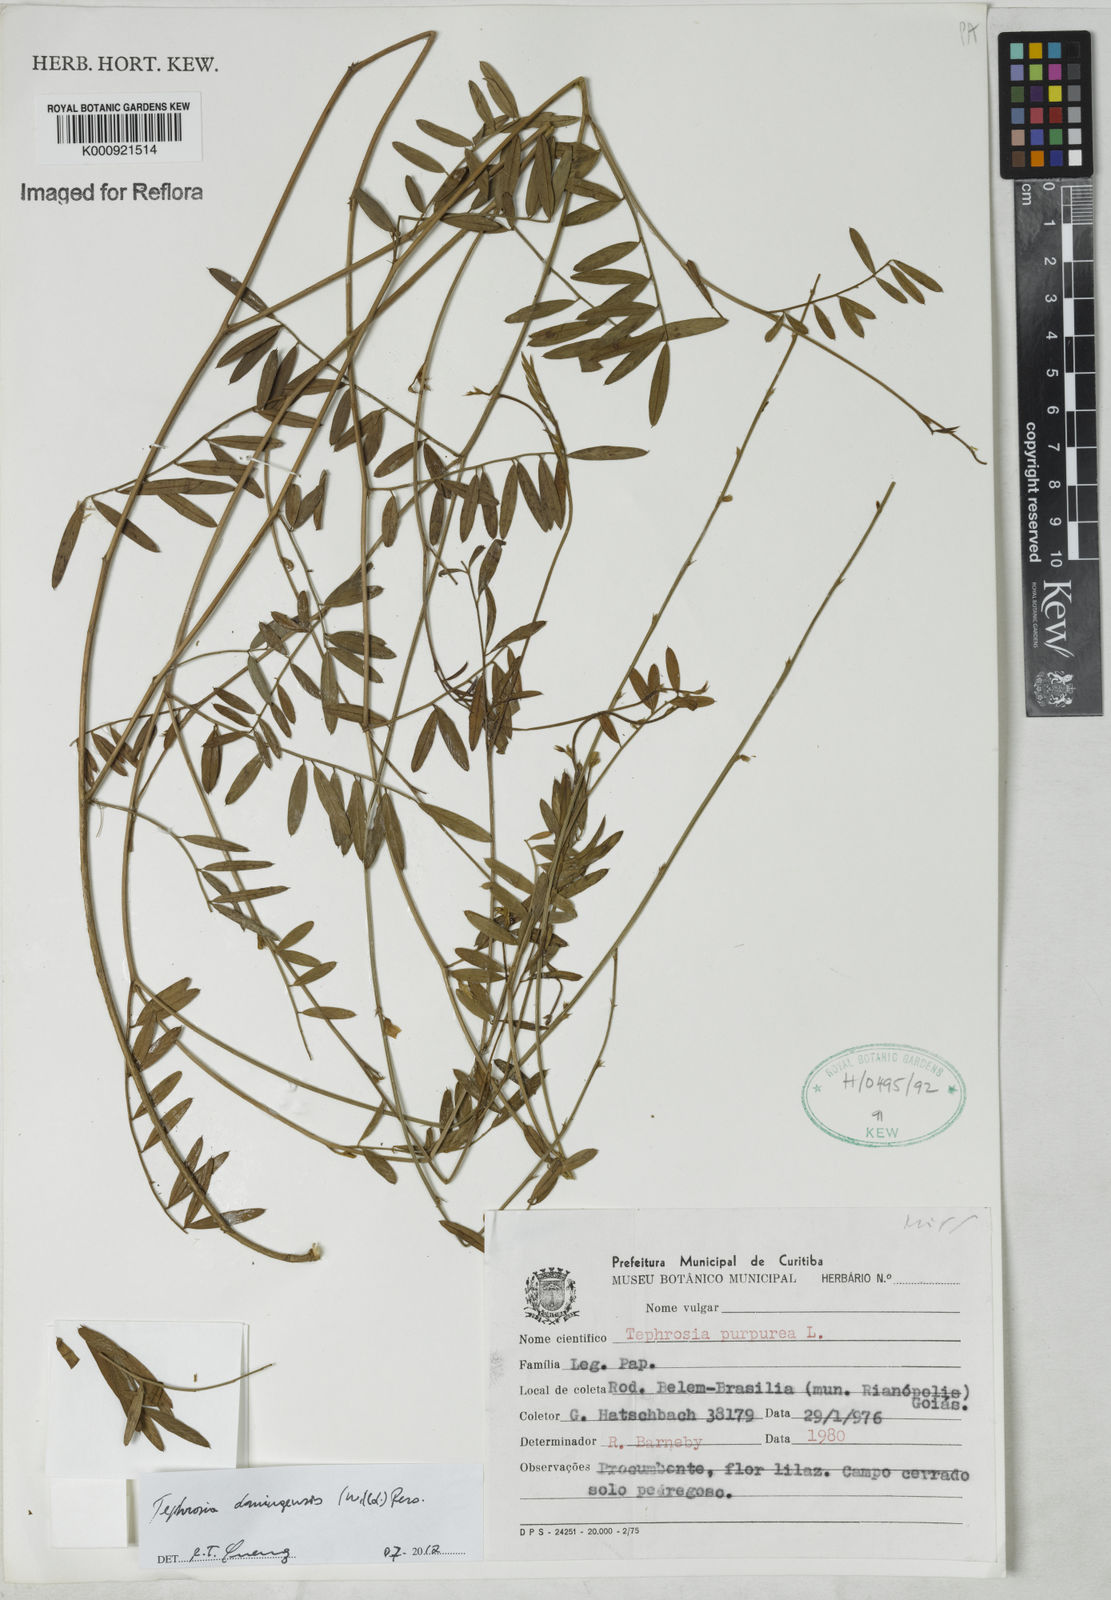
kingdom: Plantae
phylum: Tracheophyta
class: Magnoliopsida
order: Fabales
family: Fabaceae
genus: Tephrosia
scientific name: Tephrosia domingensis
